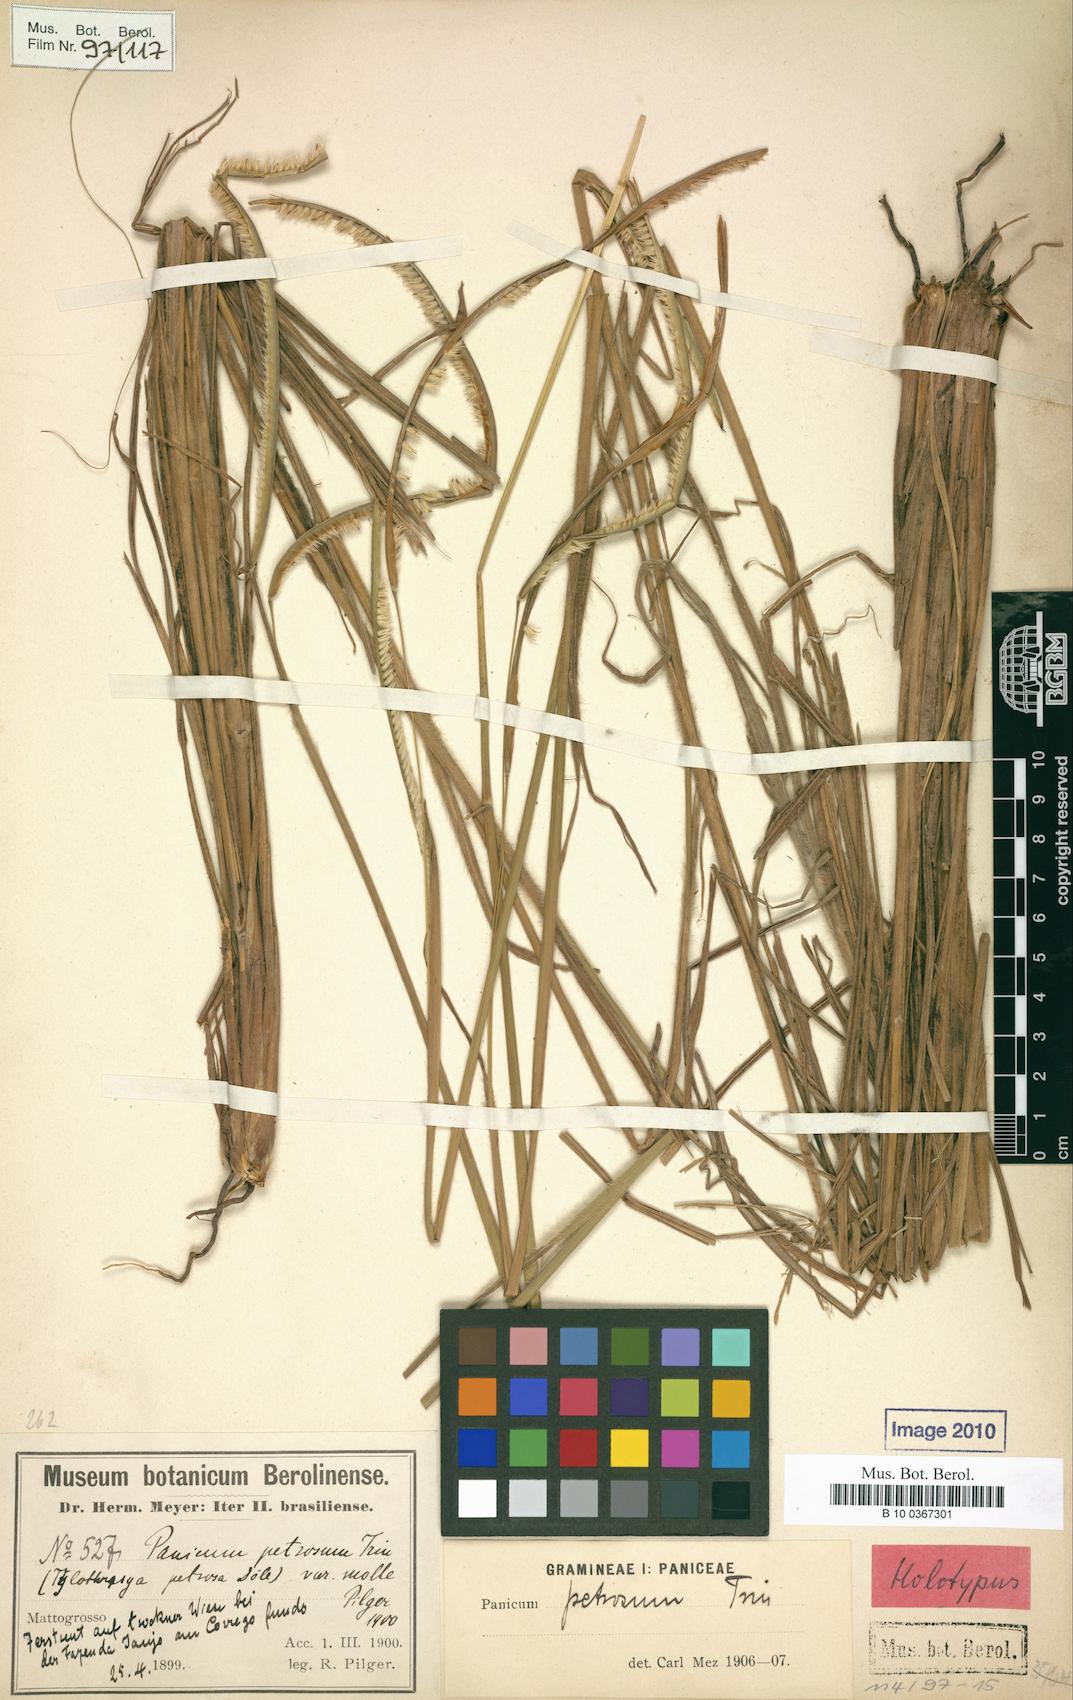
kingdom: Plantae
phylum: Tracheophyta
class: Liliopsida
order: Poales
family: Poaceae
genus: Paspalum
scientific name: Paspalum foliiforme
